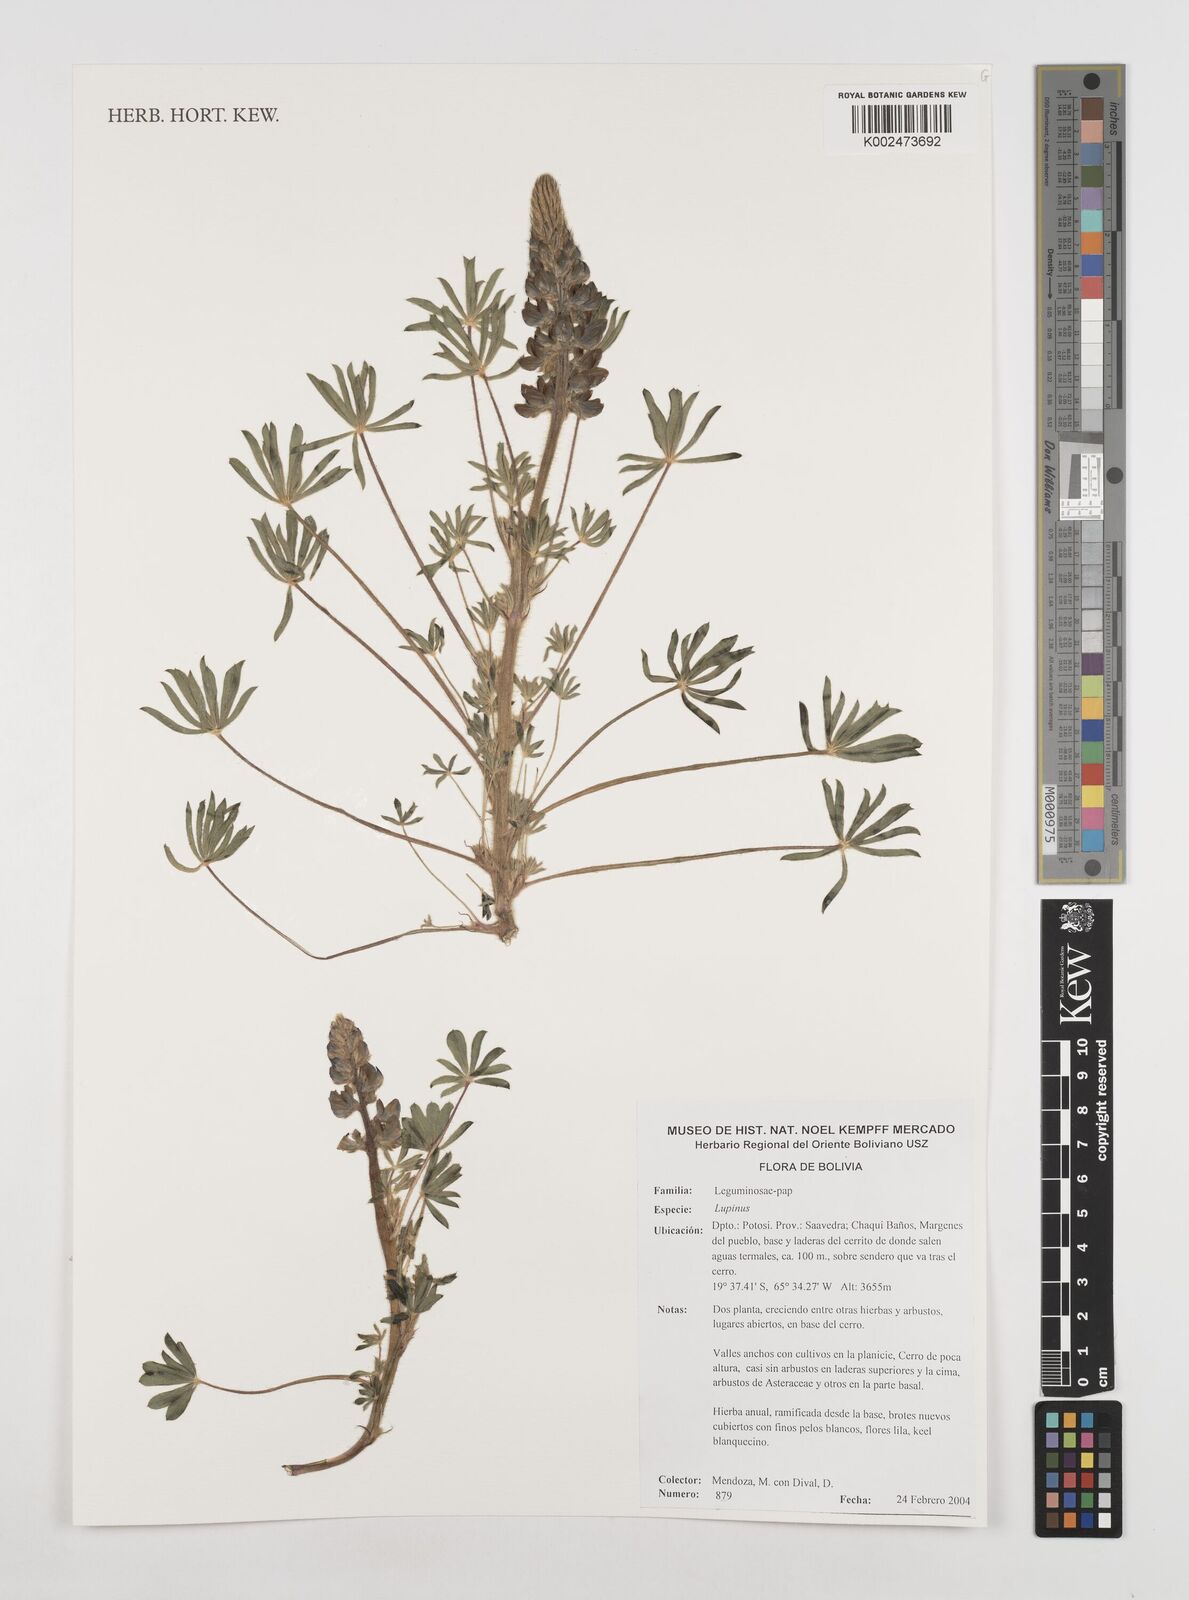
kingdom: Plantae
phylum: Tracheophyta
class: Magnoliopsida
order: Fabales
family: Fabaceae
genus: Lupinus
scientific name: Lupinus
